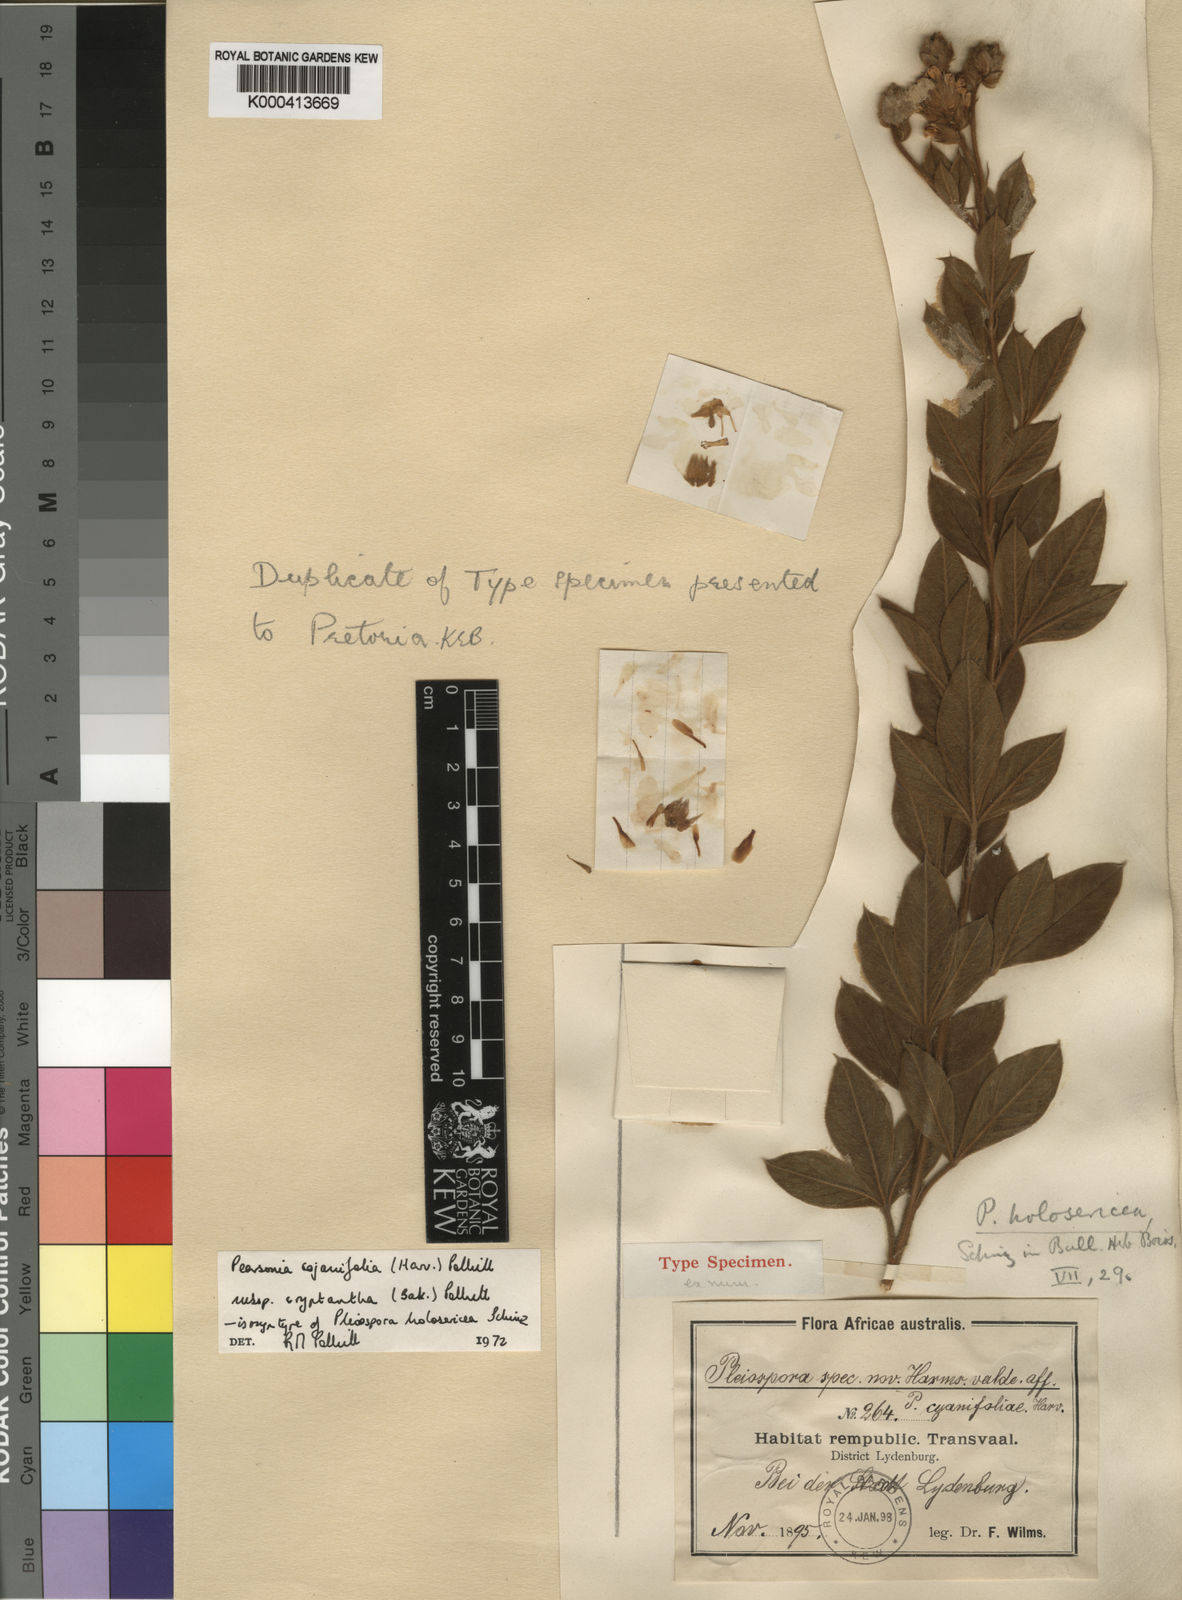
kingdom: Plantae
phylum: Tracheophyta
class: Magnoliopsida
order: Fabales
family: Fabaceae
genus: Pearsonia
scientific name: Pearsonia cajanifolia
